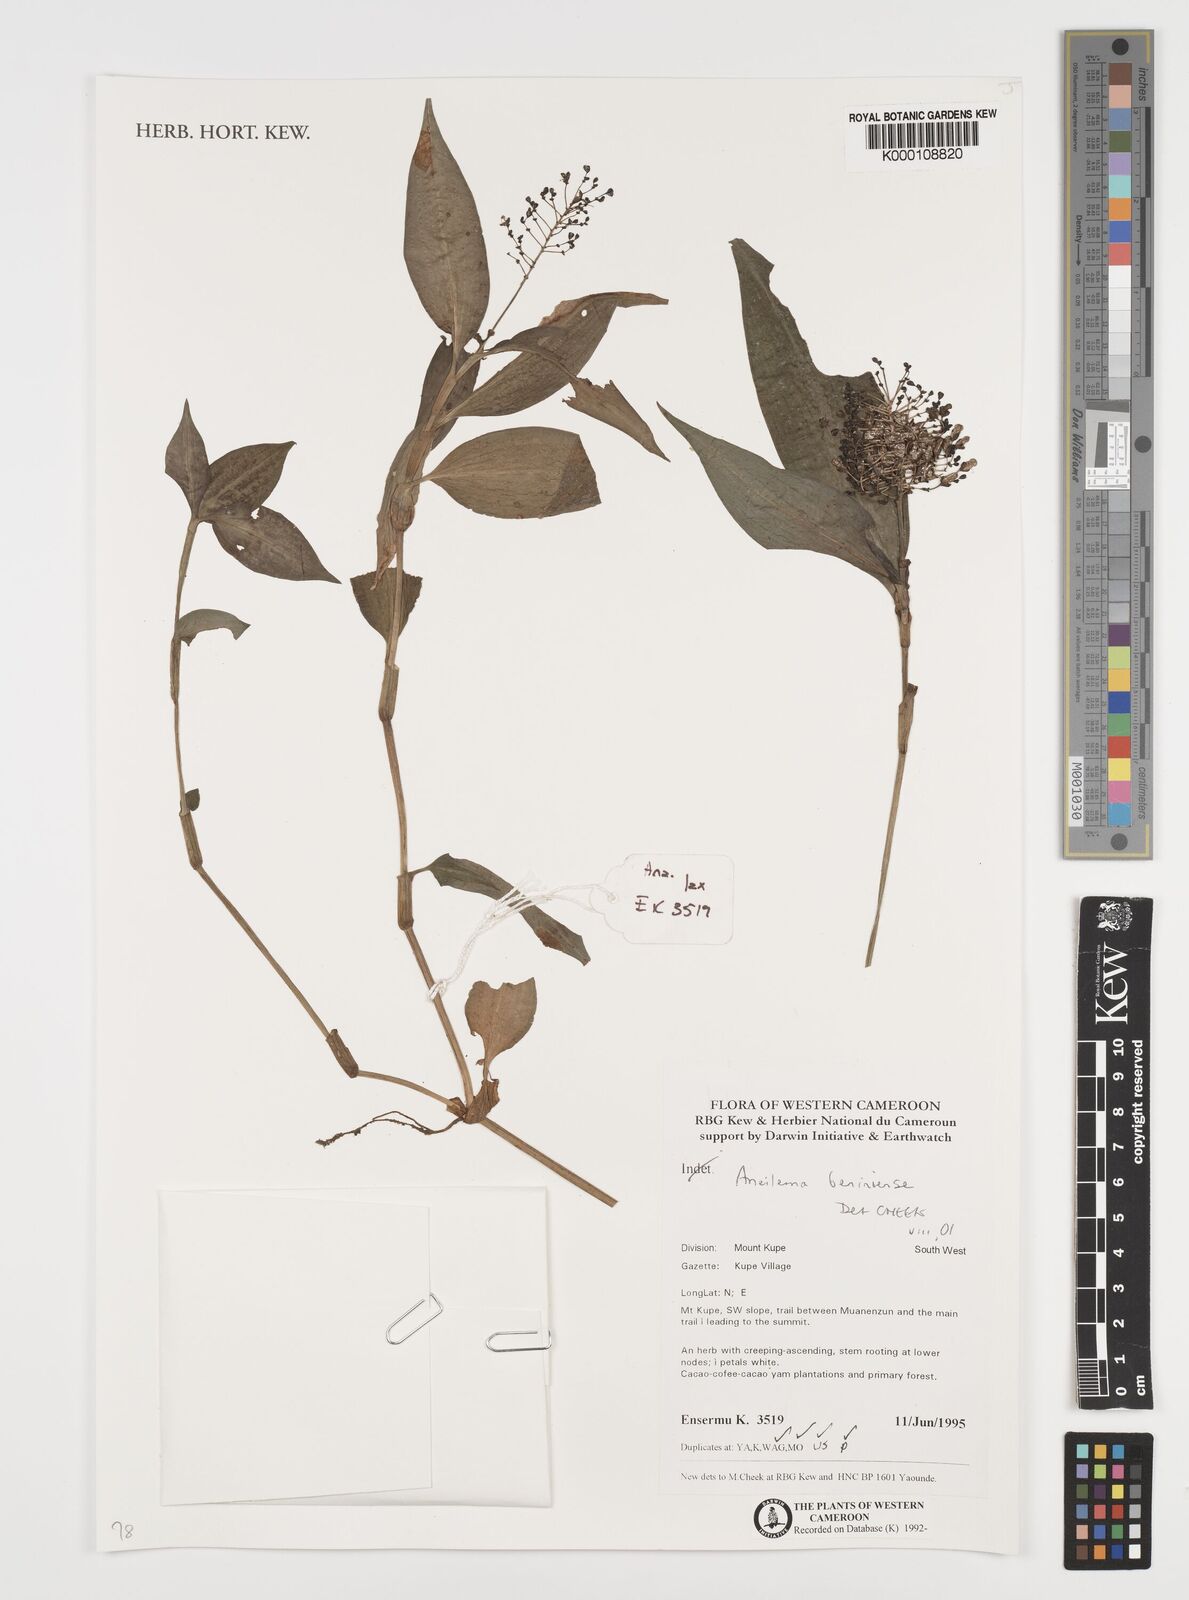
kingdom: Plantae
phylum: Tracheophyta
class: Liliopsida
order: Commelinales
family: Commelinaceae
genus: Aneilema
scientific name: Aneilema beniniense
